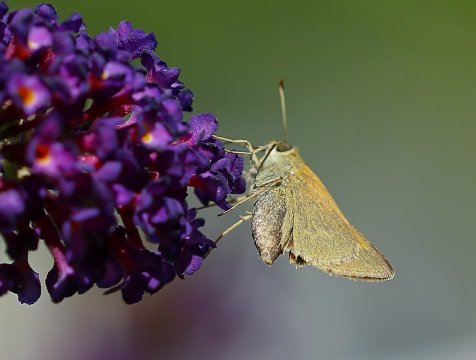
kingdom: Animalia
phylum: Arthropoda
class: Insecta
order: Lepidoptera
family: Hesperiidae
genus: Polites
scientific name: Polites themistocles
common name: Tawny-edged Skipper
